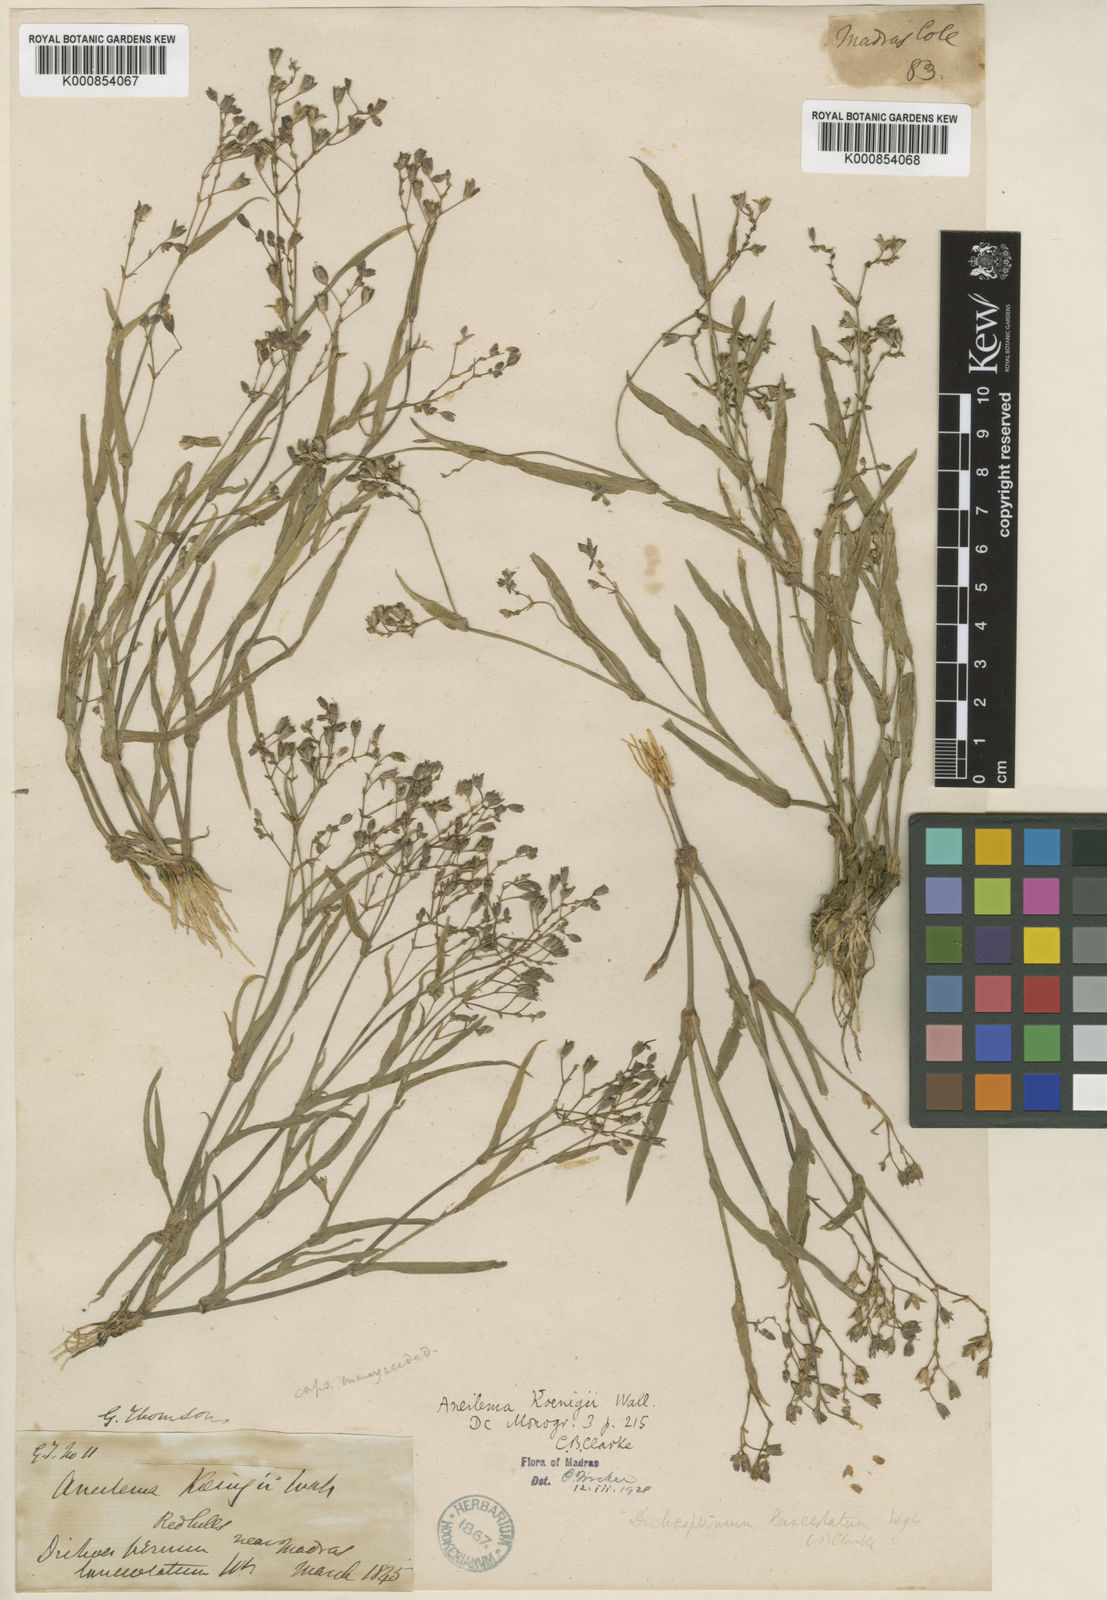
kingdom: Plantae
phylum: Tracheophyta
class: Liliopsida
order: Commelinales
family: Commelinaceae
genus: Murdannia
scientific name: Murdannia
